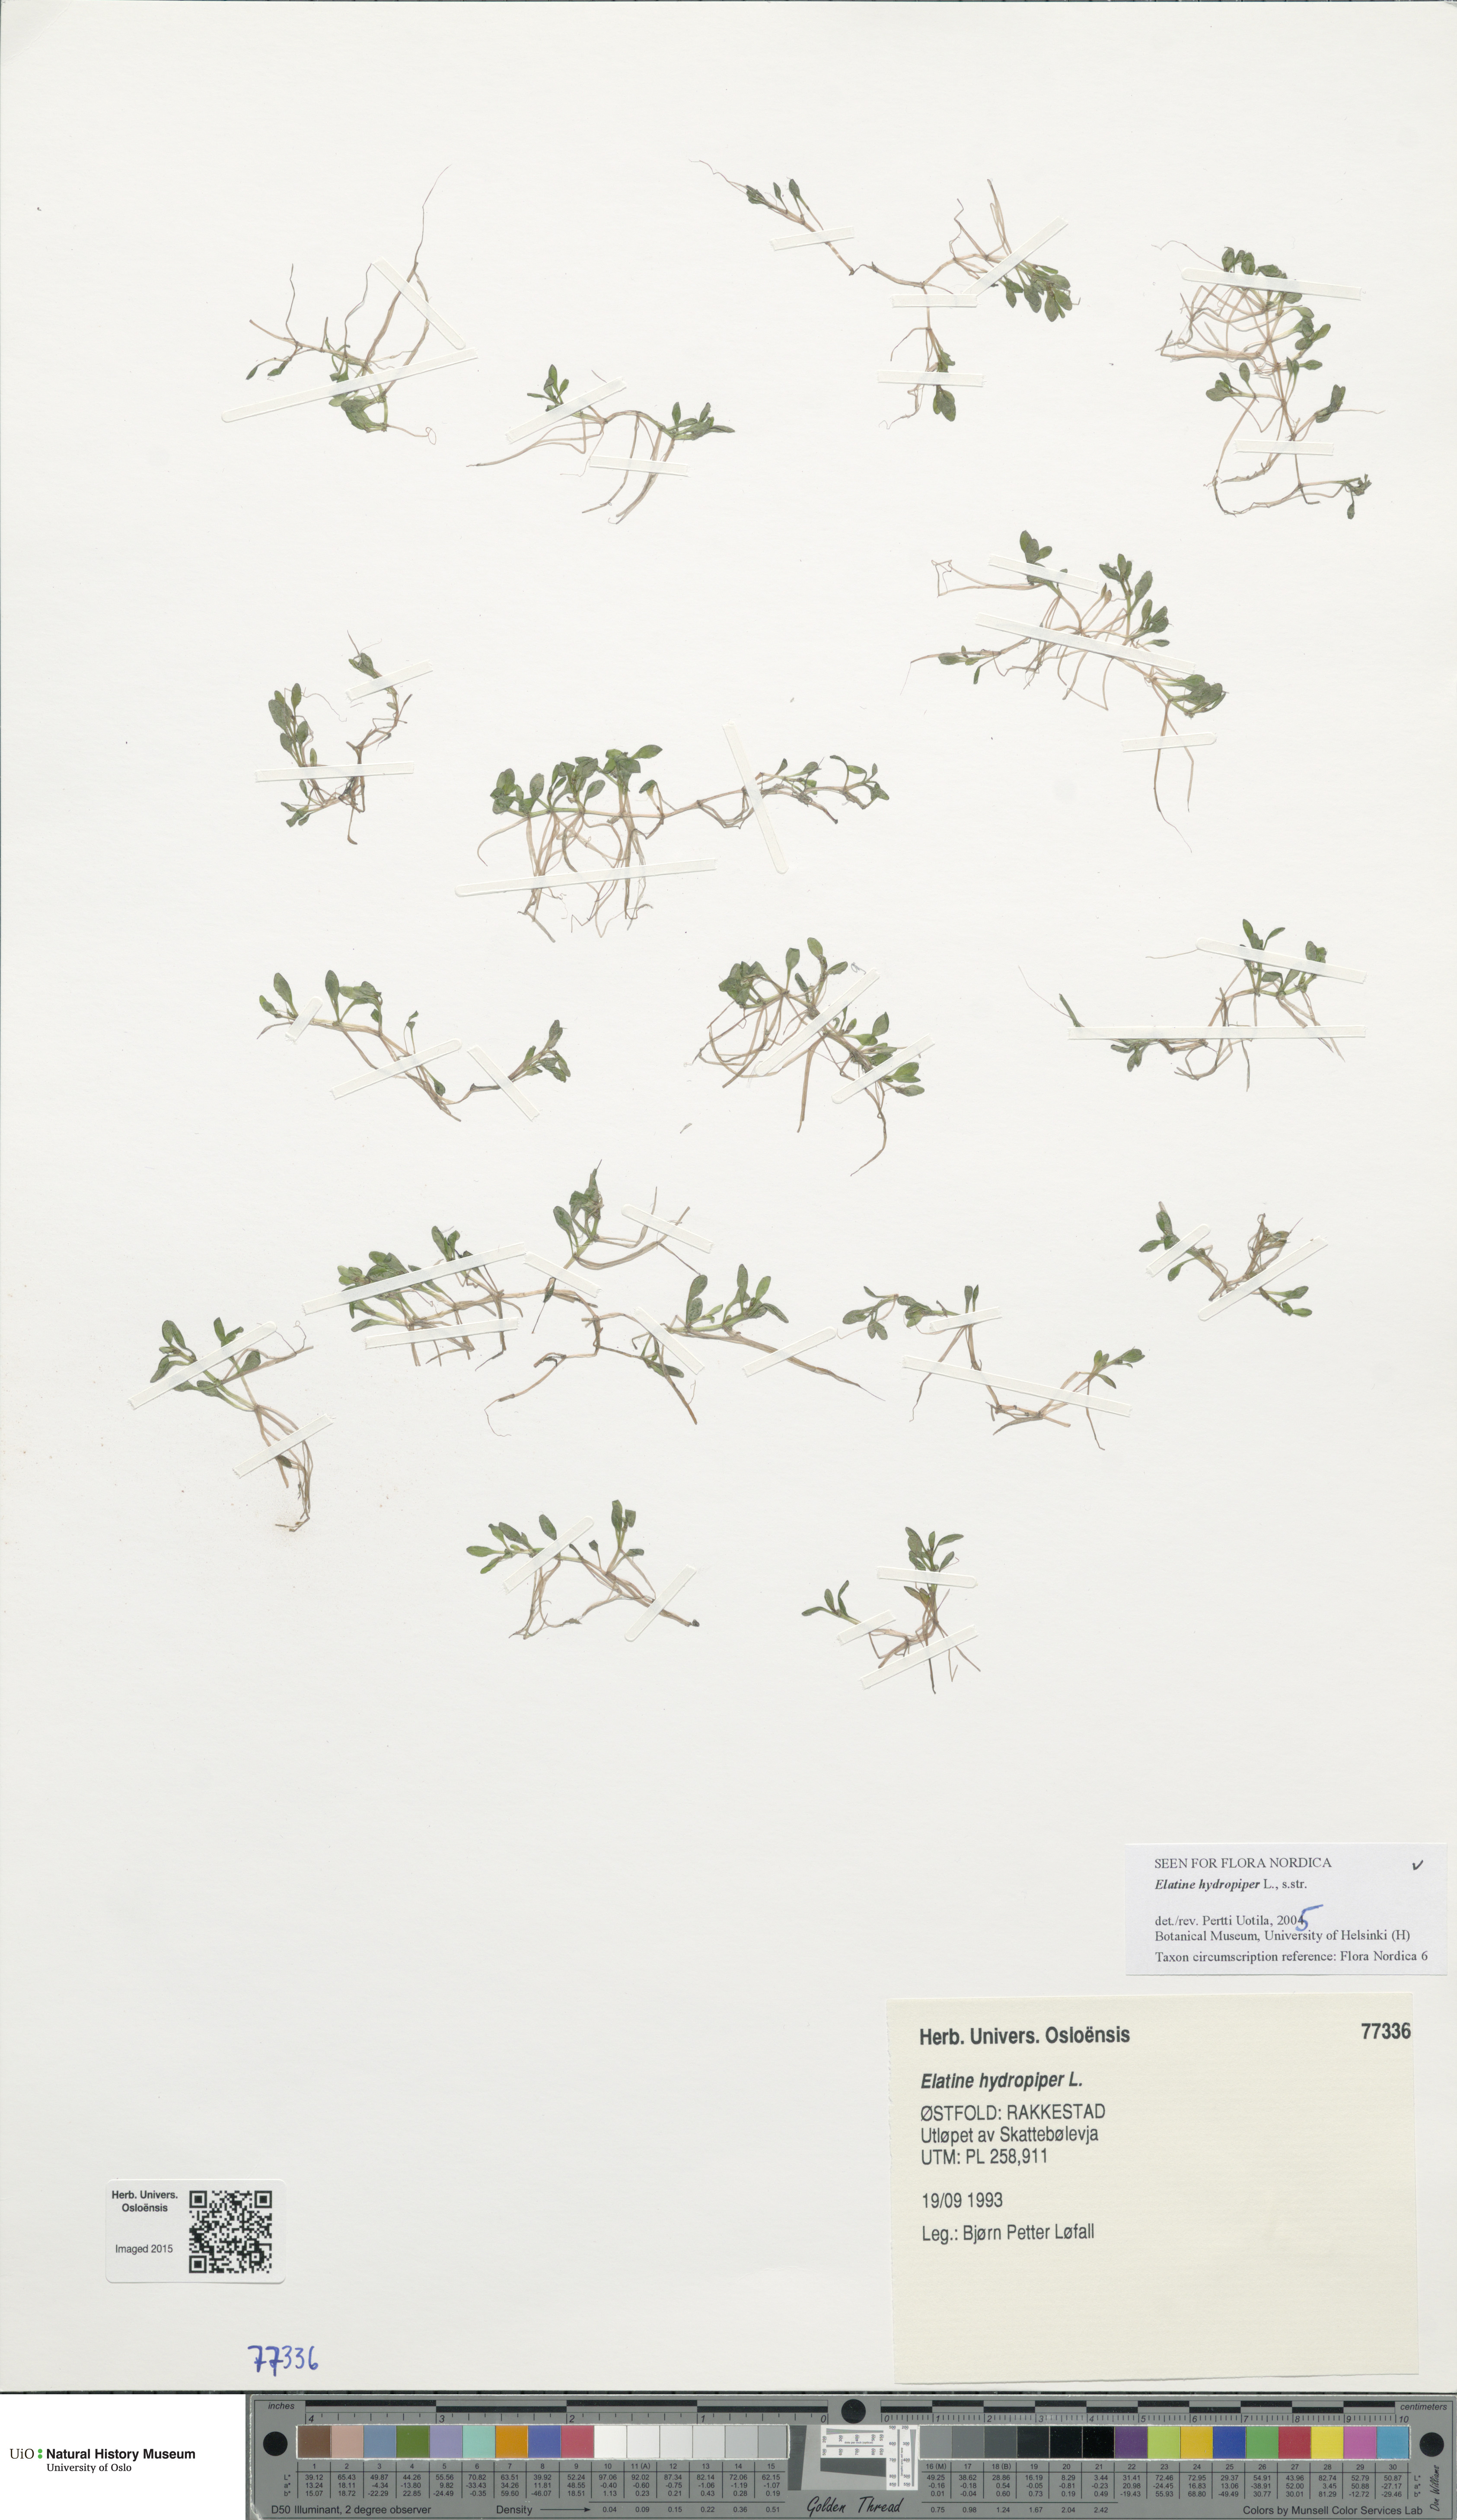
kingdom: Plantae
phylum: Tracheophyta
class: Magnoliopsida
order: Malpighiales
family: Elatinaceae
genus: Elatine
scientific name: Elatine hydropiper
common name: Eight-stamened waterwort
